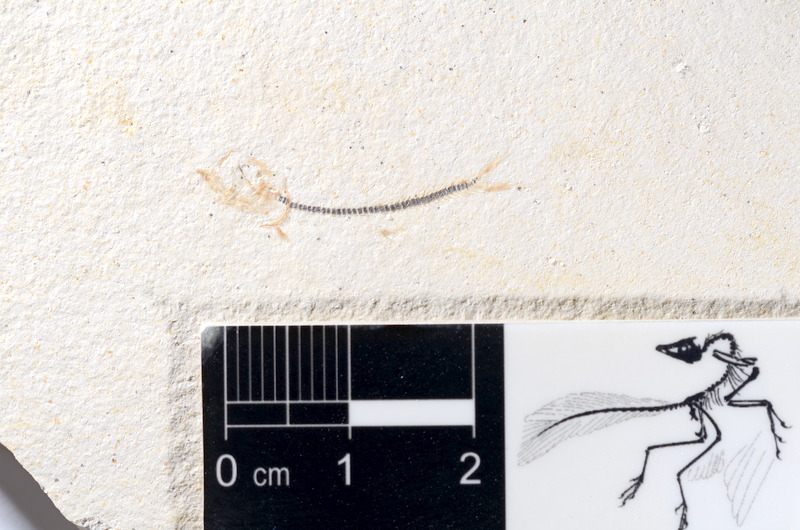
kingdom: Animalia
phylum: Chordata
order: Salmoniformes
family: Orthogonikleithridae
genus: Orthogonikleithrus
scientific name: Orthogonikleithrus hoelli
